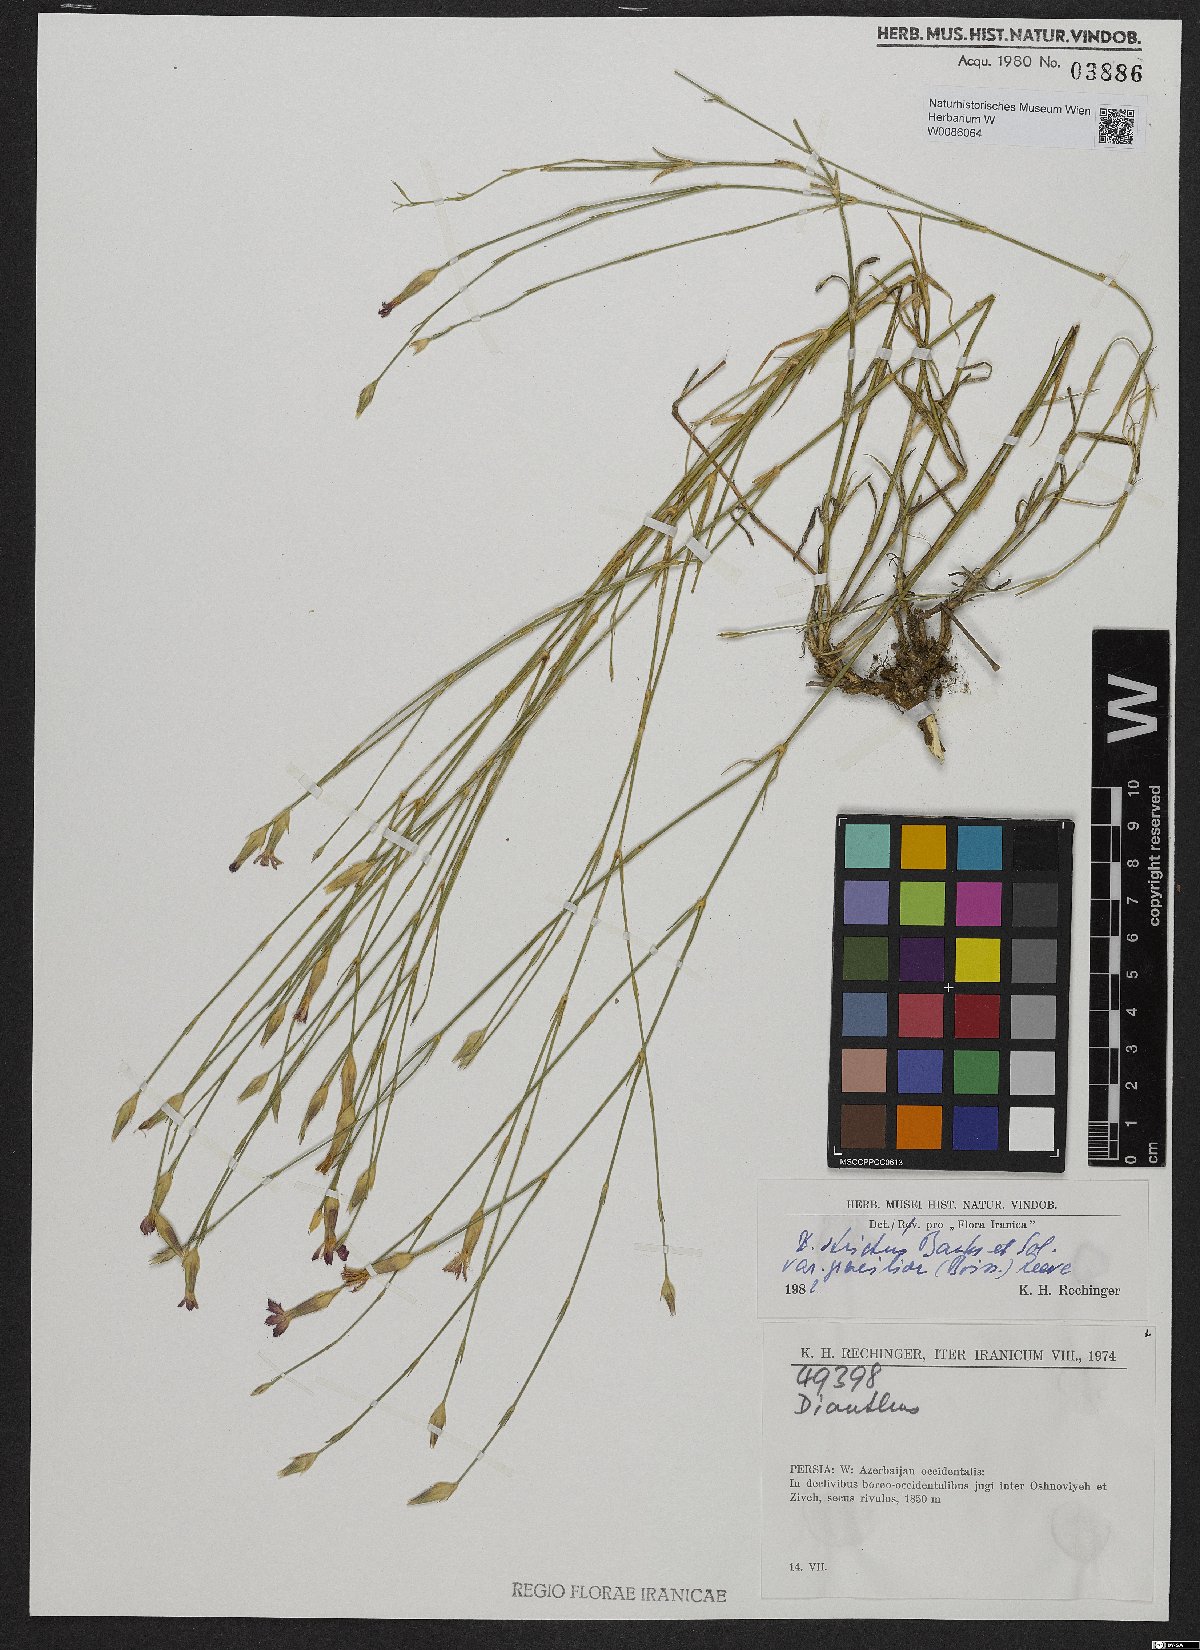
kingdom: Plantae
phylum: Tracheophyta
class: Magnoliopsida
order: Caryophyllales
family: Caryophyllaceae
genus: Dianthus
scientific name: Dianthus strictus
